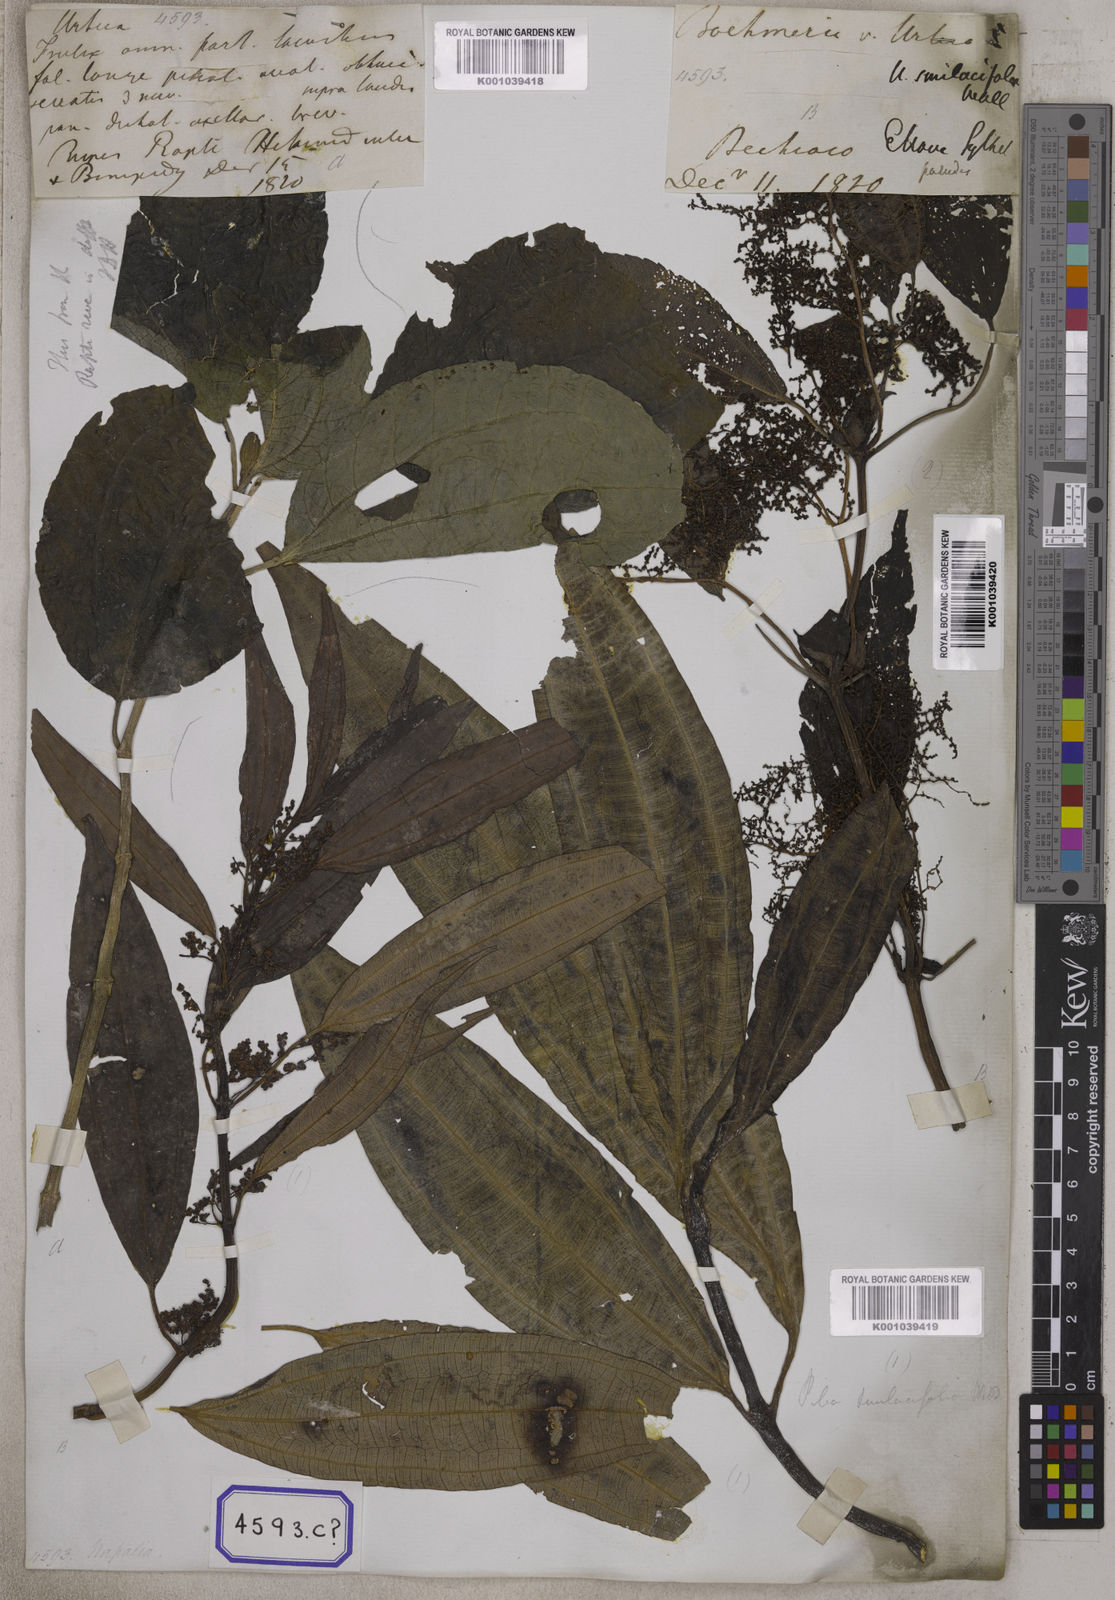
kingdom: Plantae
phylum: Tracheophyta
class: Magnoliopsida
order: Rosales
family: Urticaceae
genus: Urtica
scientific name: Urtica
